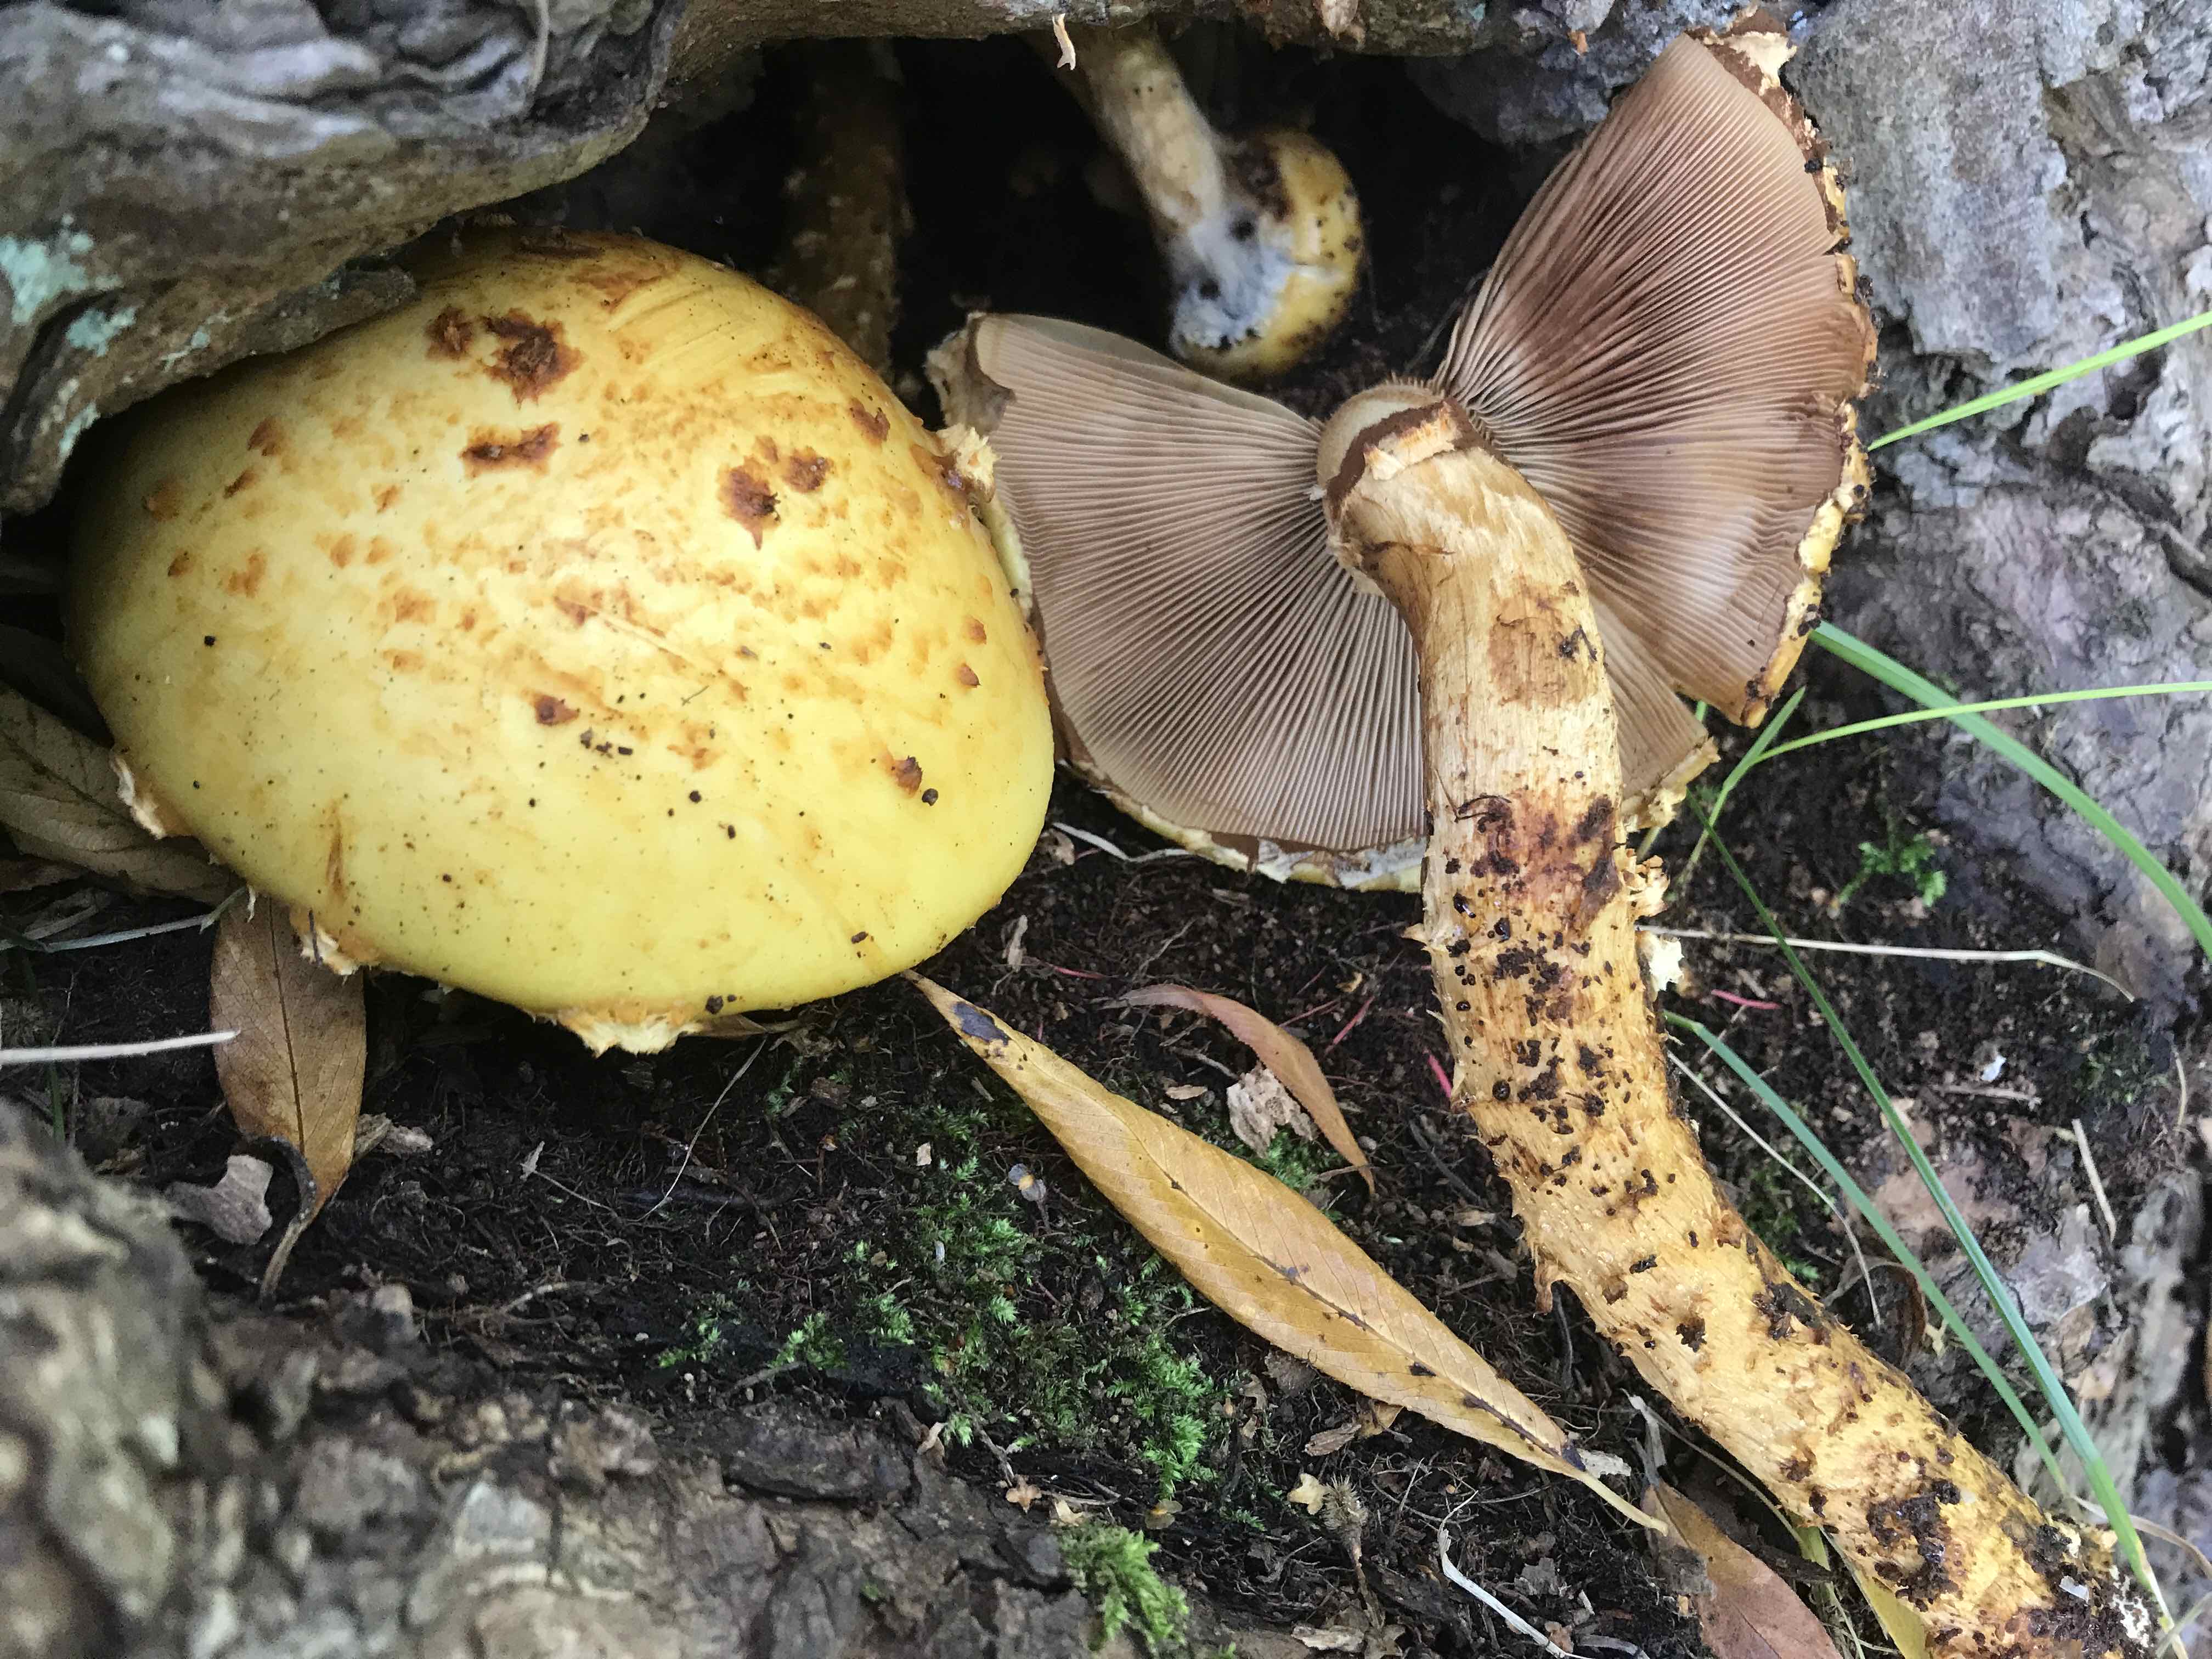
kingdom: Fungi
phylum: Basidiomycota
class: Agaricomycetes
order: Agaricales
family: Strophariaceae
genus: Pholiota
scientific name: Pholiota adiposa
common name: højtsiddende skælhat
